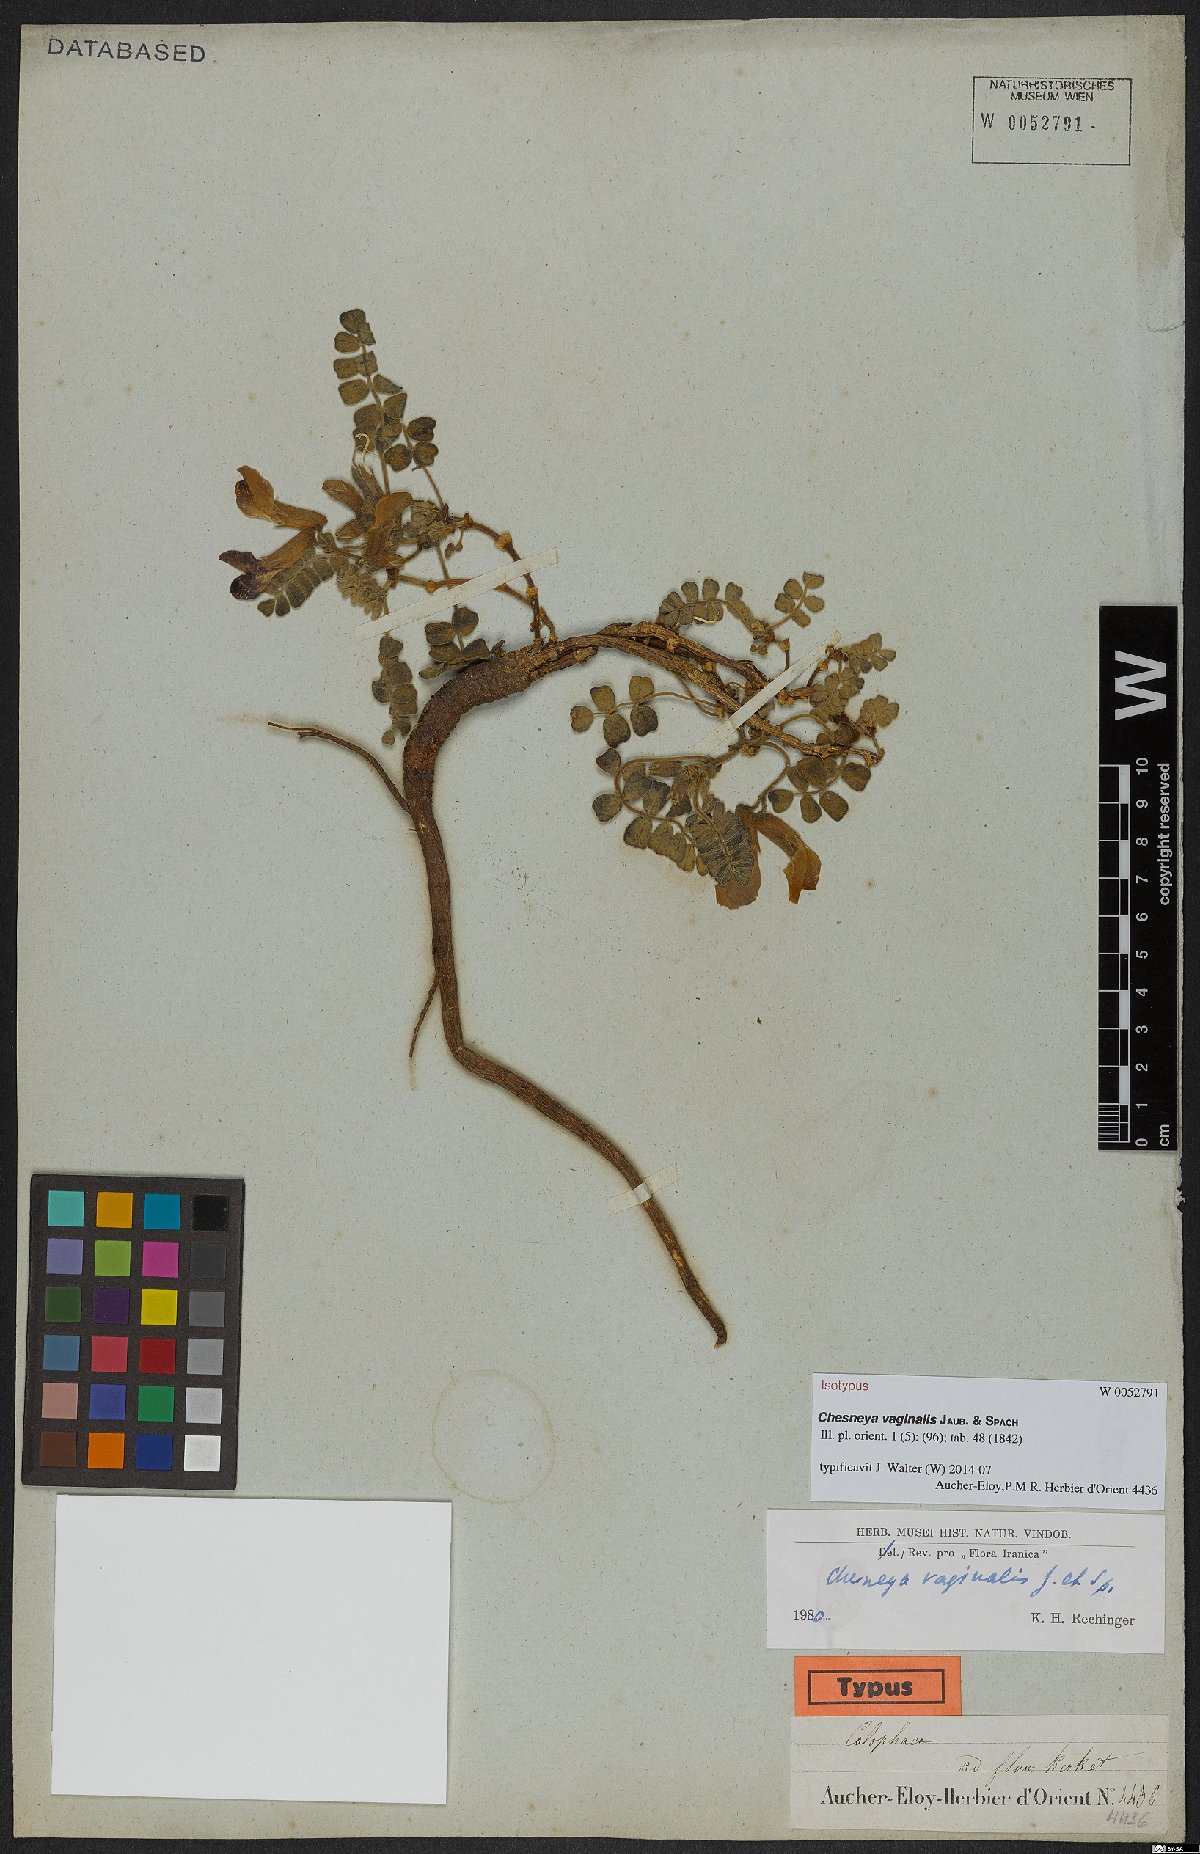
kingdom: Plantae
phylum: Tracheophyta
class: Magnoliopsida
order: Fabales
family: Fabaceae
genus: Chesneya
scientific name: Chesneya vaginalis
